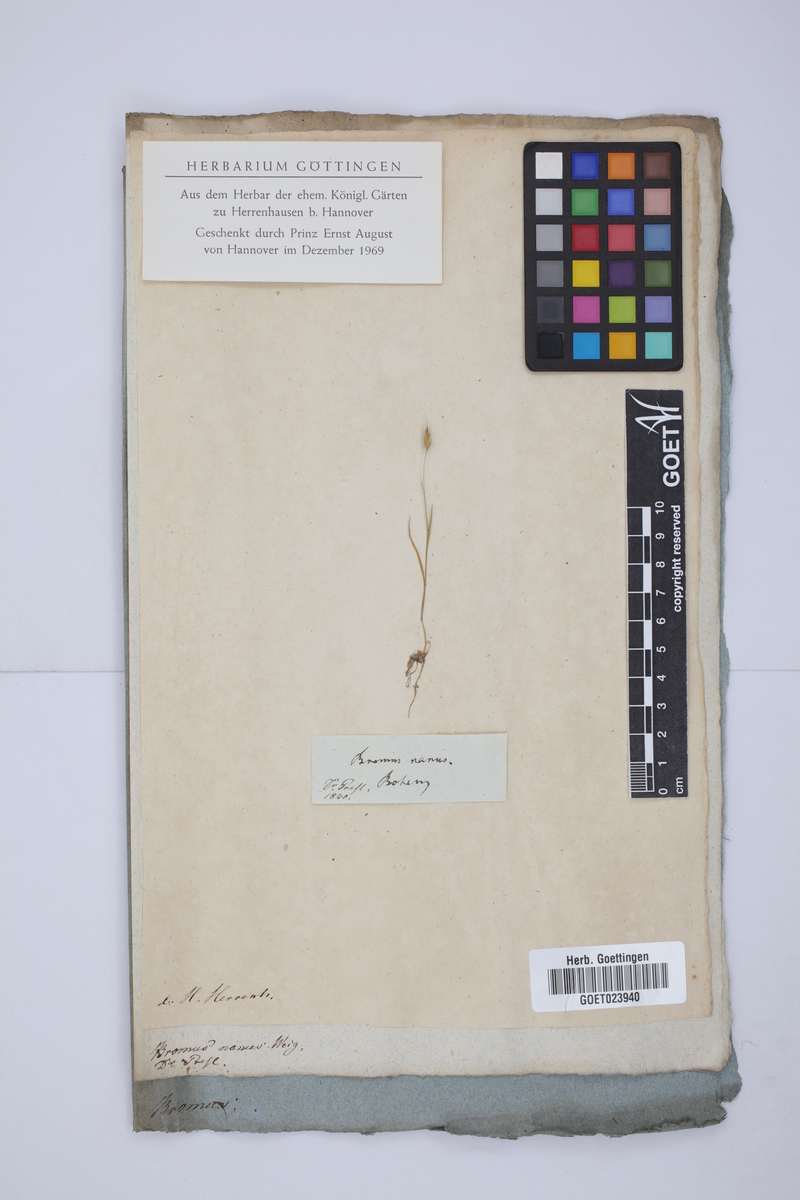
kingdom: Plantae
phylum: Tracheophyta
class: Liliopsida
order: Poales
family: Poaceae
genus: Bromus
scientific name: Bromus hordeaceus
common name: Soft brome
